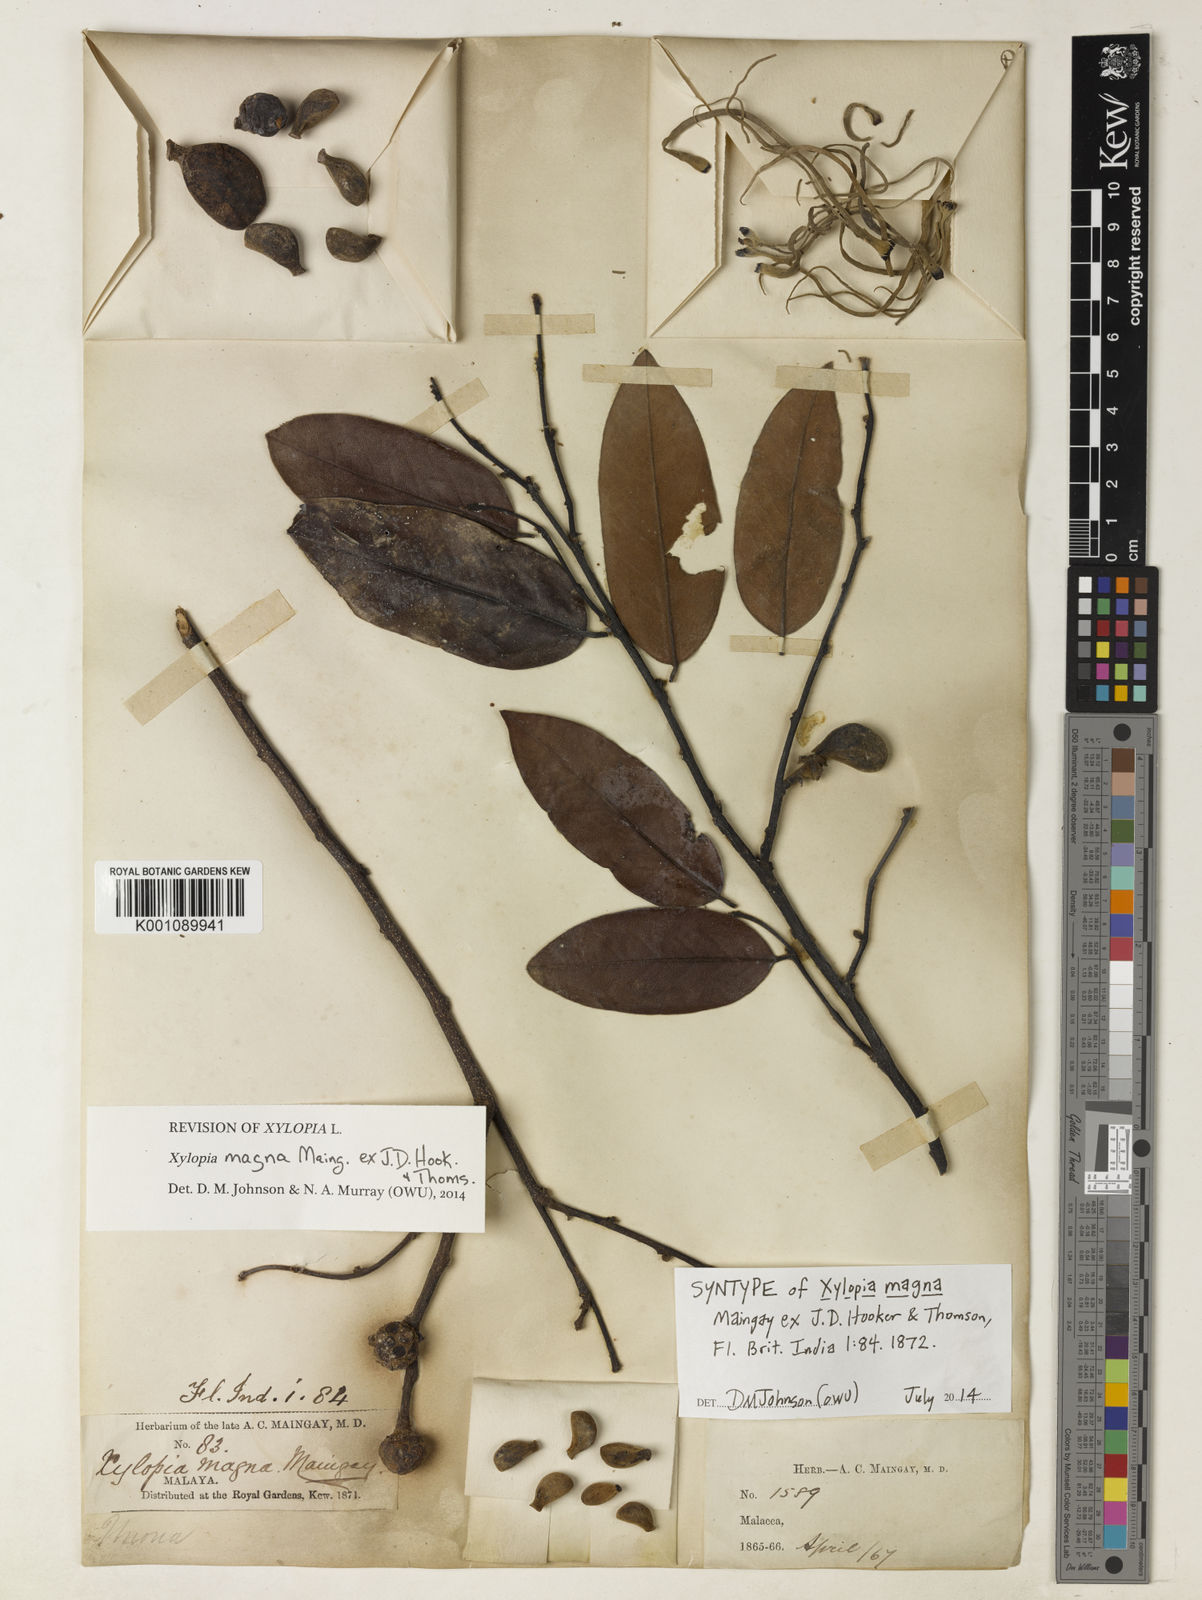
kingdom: Plantae
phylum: Tracheophyta
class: Magnoliopsida
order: Magnoliales
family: Annonaceae
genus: Xylopia
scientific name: Xylopia magna
